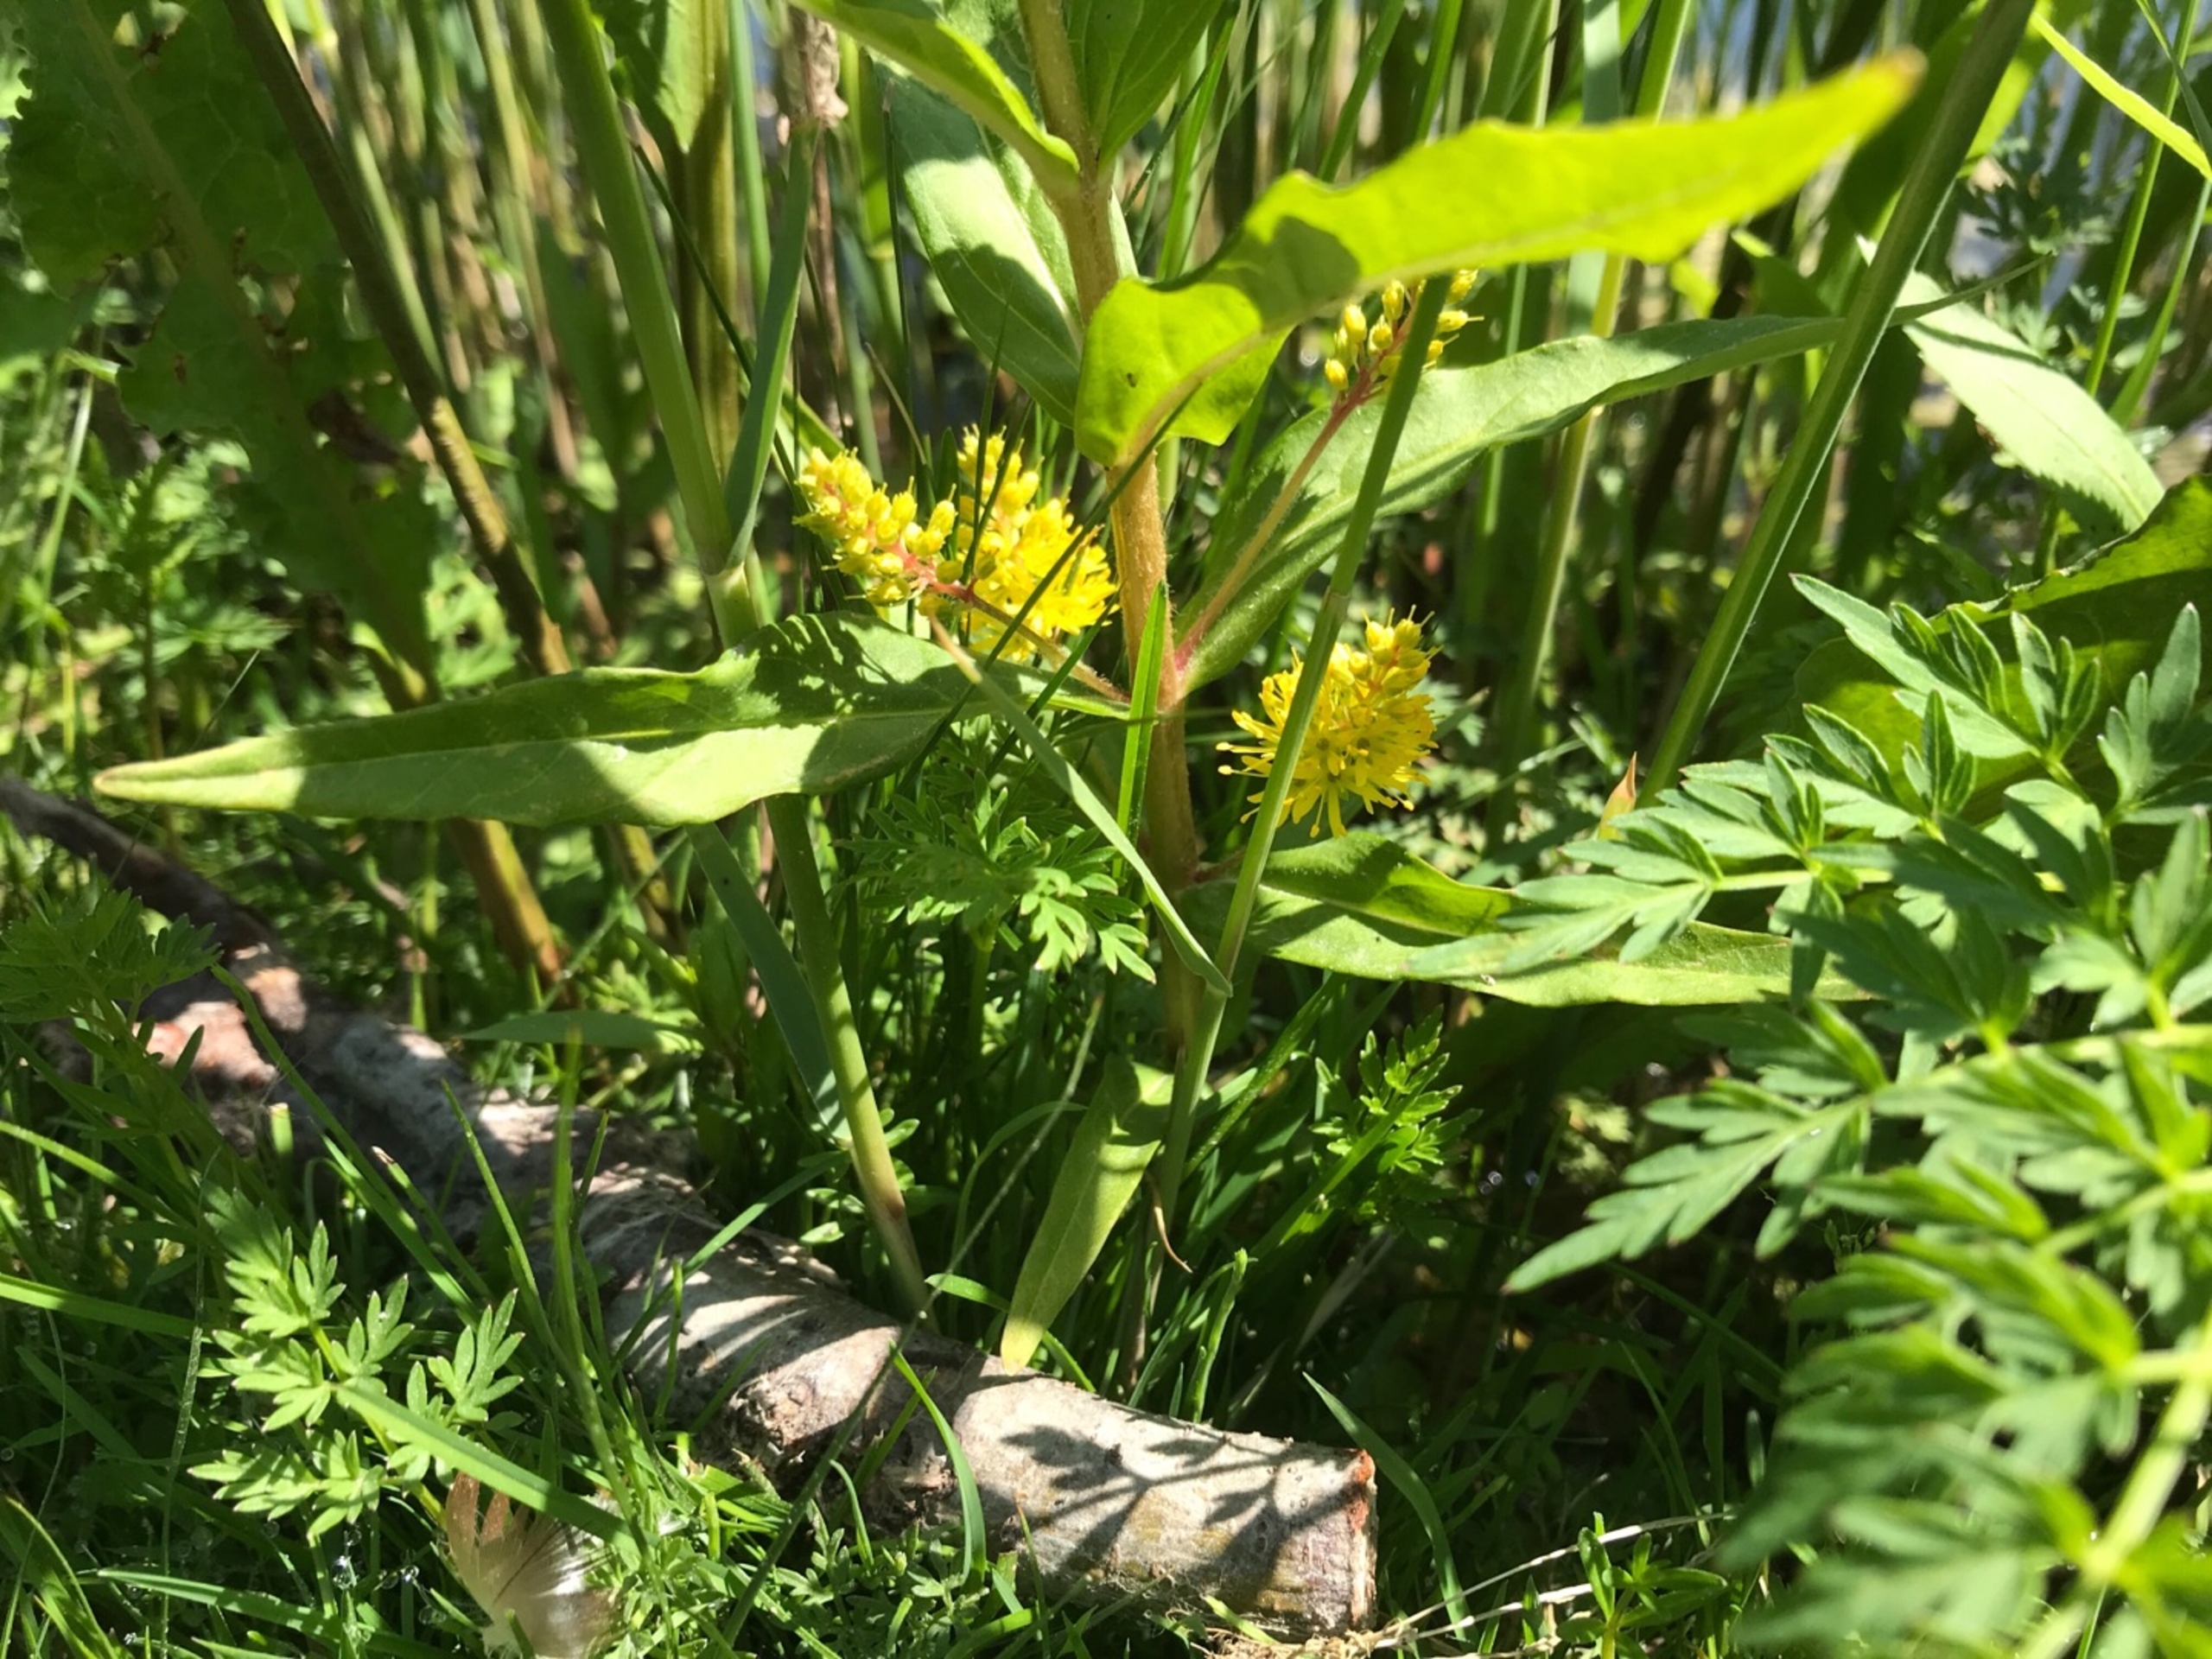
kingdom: Plantae
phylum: Tracheophyta
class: Magnoliopsida
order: Ericales
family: Primulaceae
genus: Lysimachia
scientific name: Lysimachia thyrsiflora
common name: Dusk-fredløs
